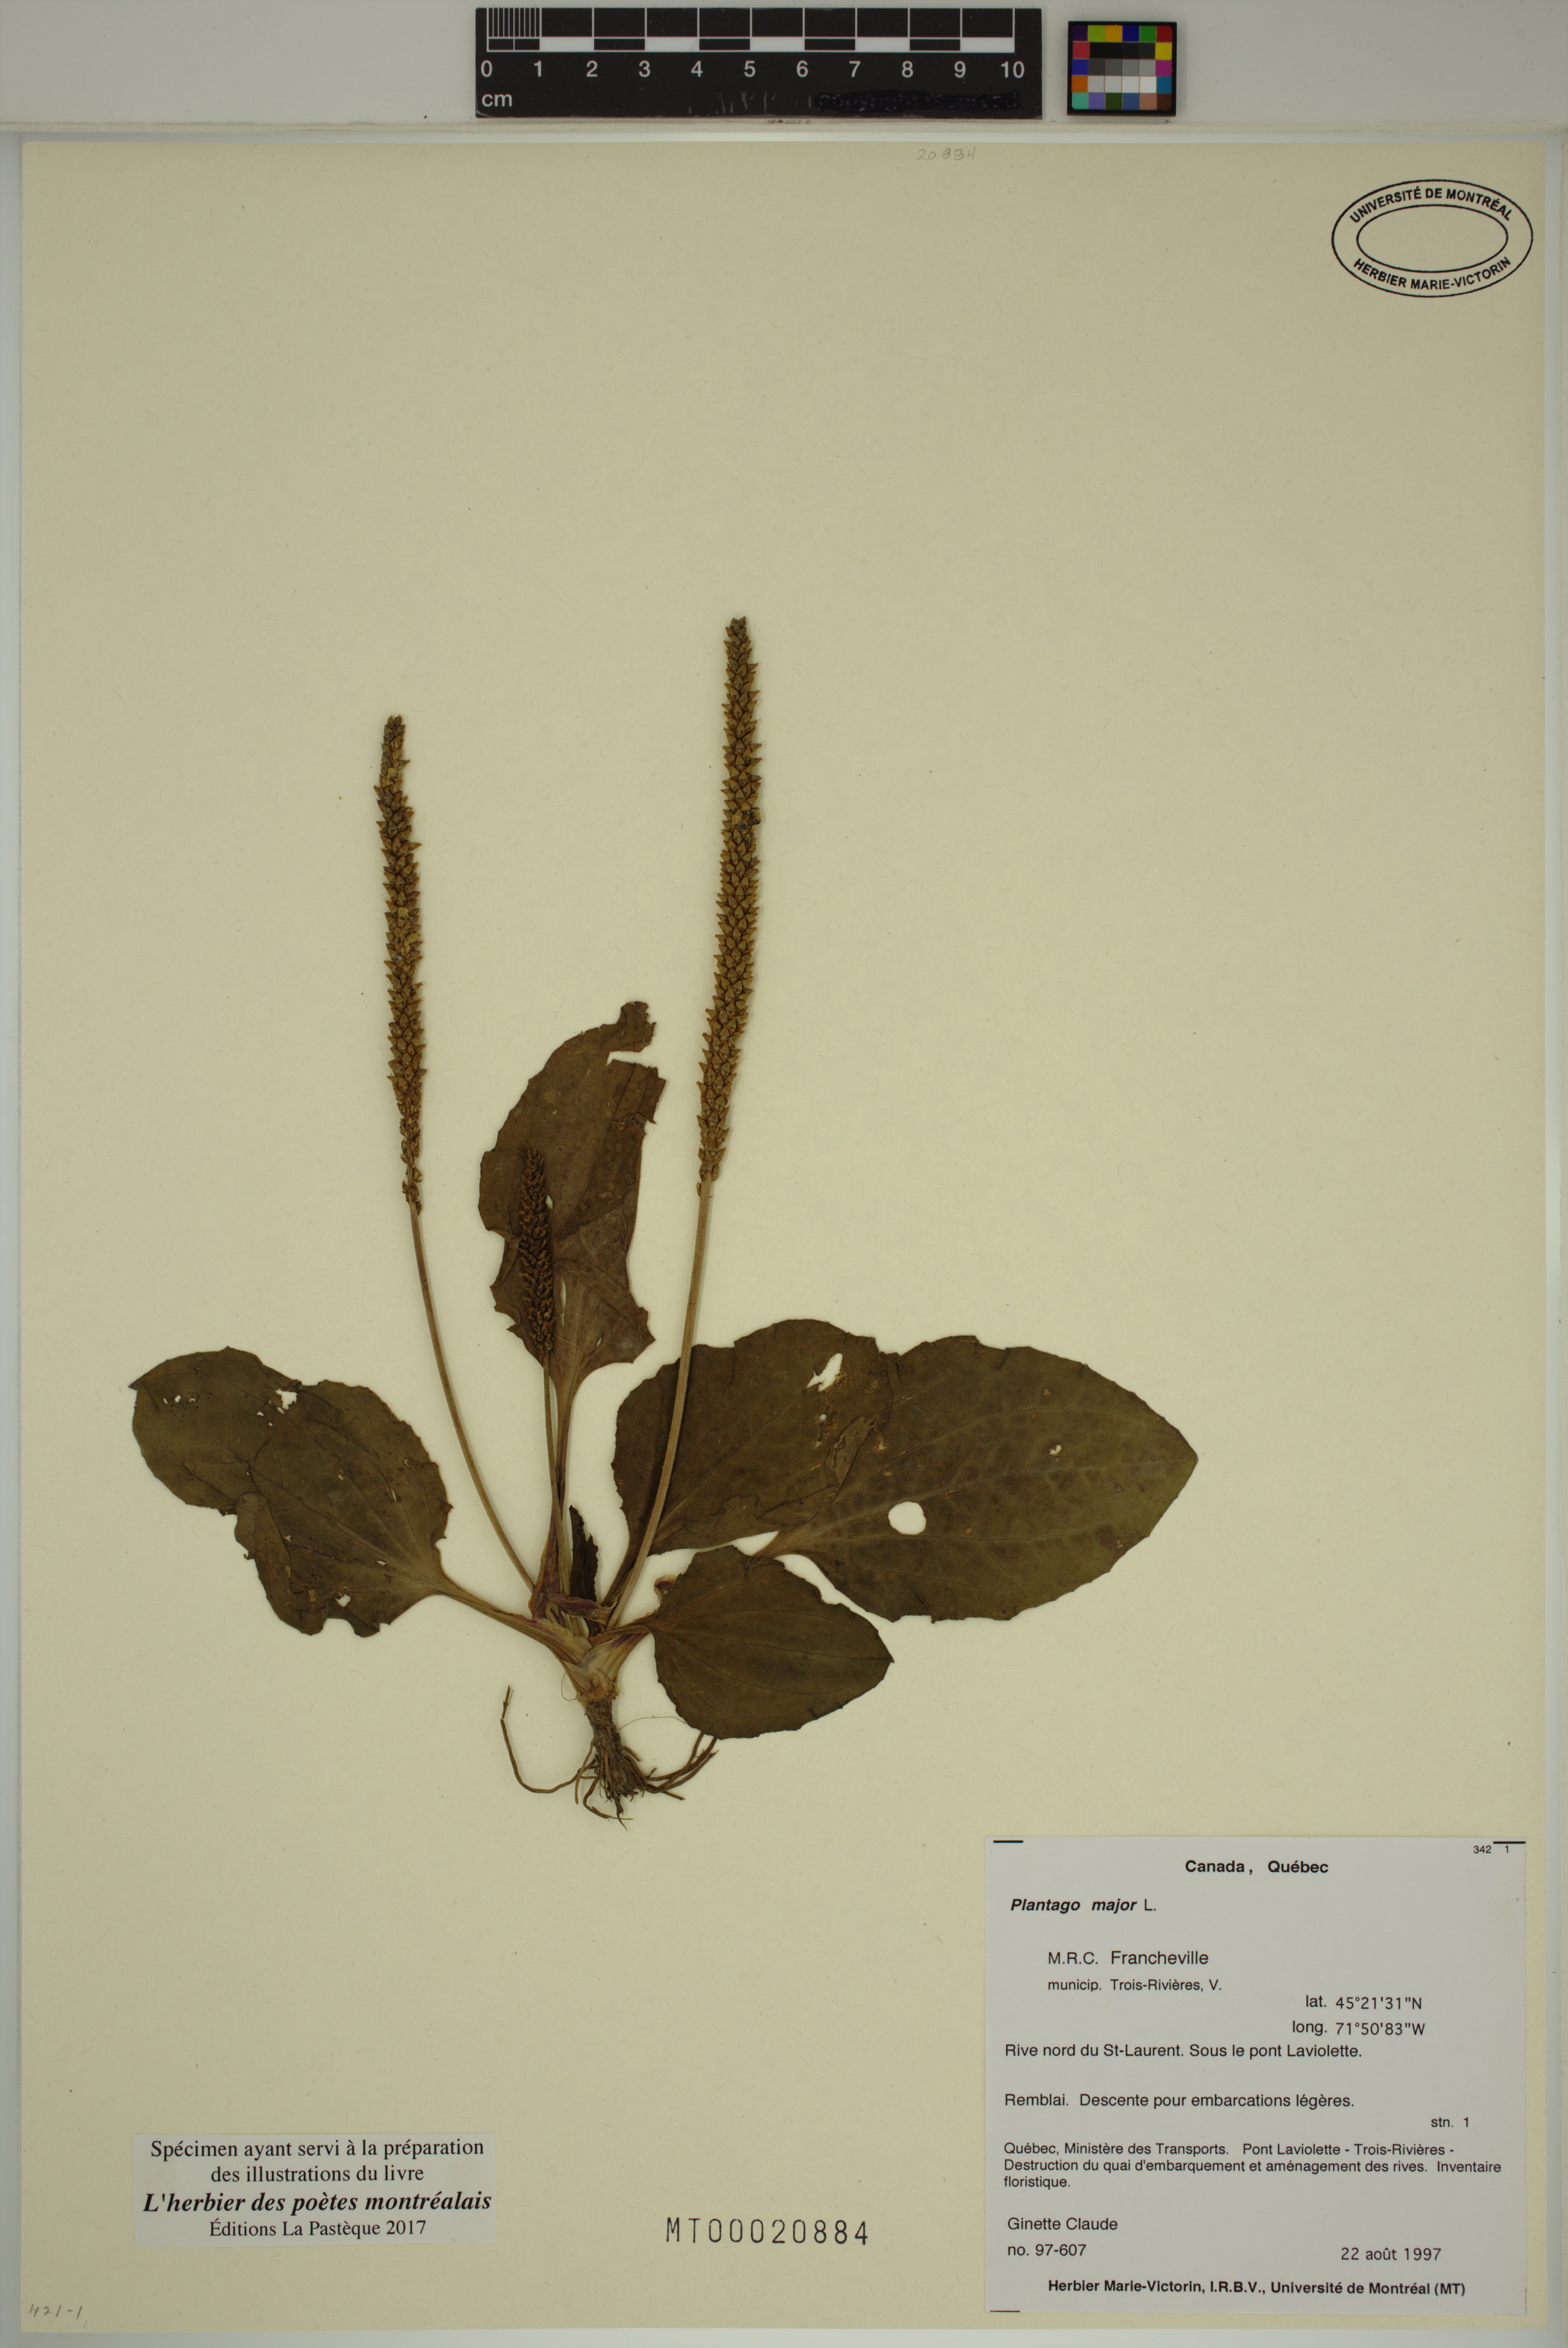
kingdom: Plantae
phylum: Tracheophyta
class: Magnoliopsida
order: Lamiales
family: Plantaginaceae
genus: Plantago
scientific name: Plantago major
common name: Common plantain
